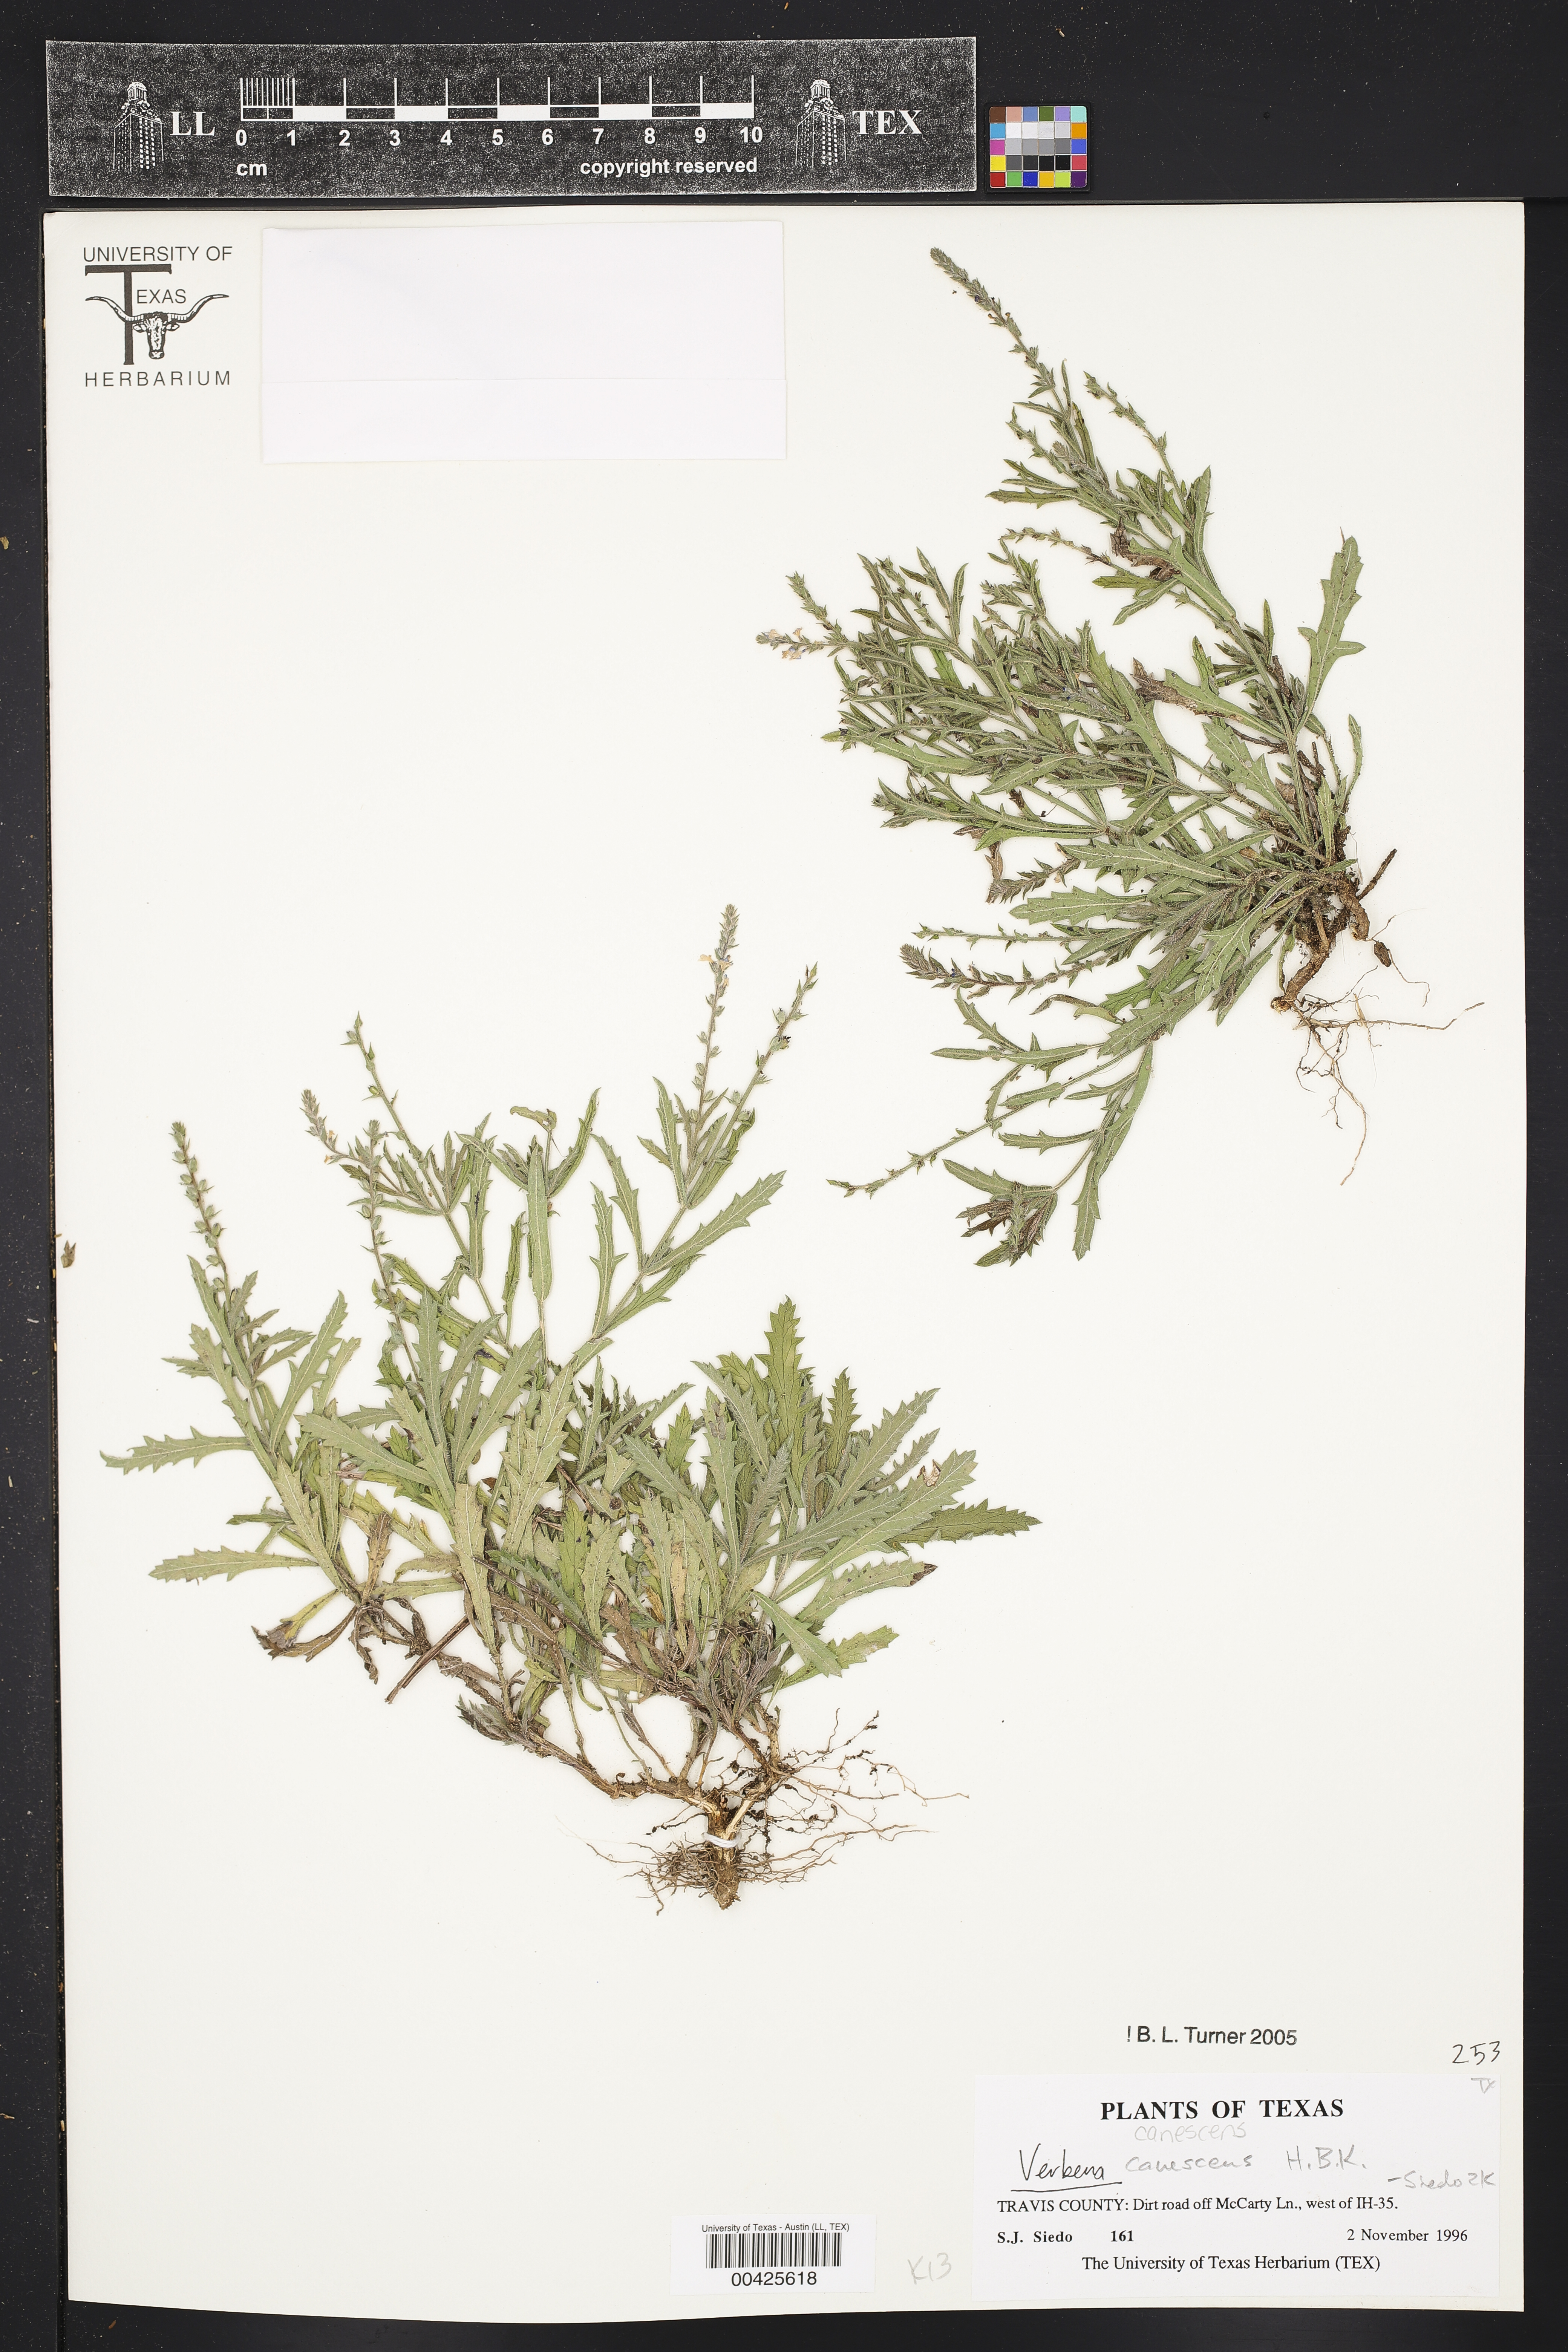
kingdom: Plantae
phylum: Tracheophyta
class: Magnoliopsida
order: Lamiales
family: Verbenaceae
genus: Verbena
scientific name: Verbena canescens
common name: Gray vervain
